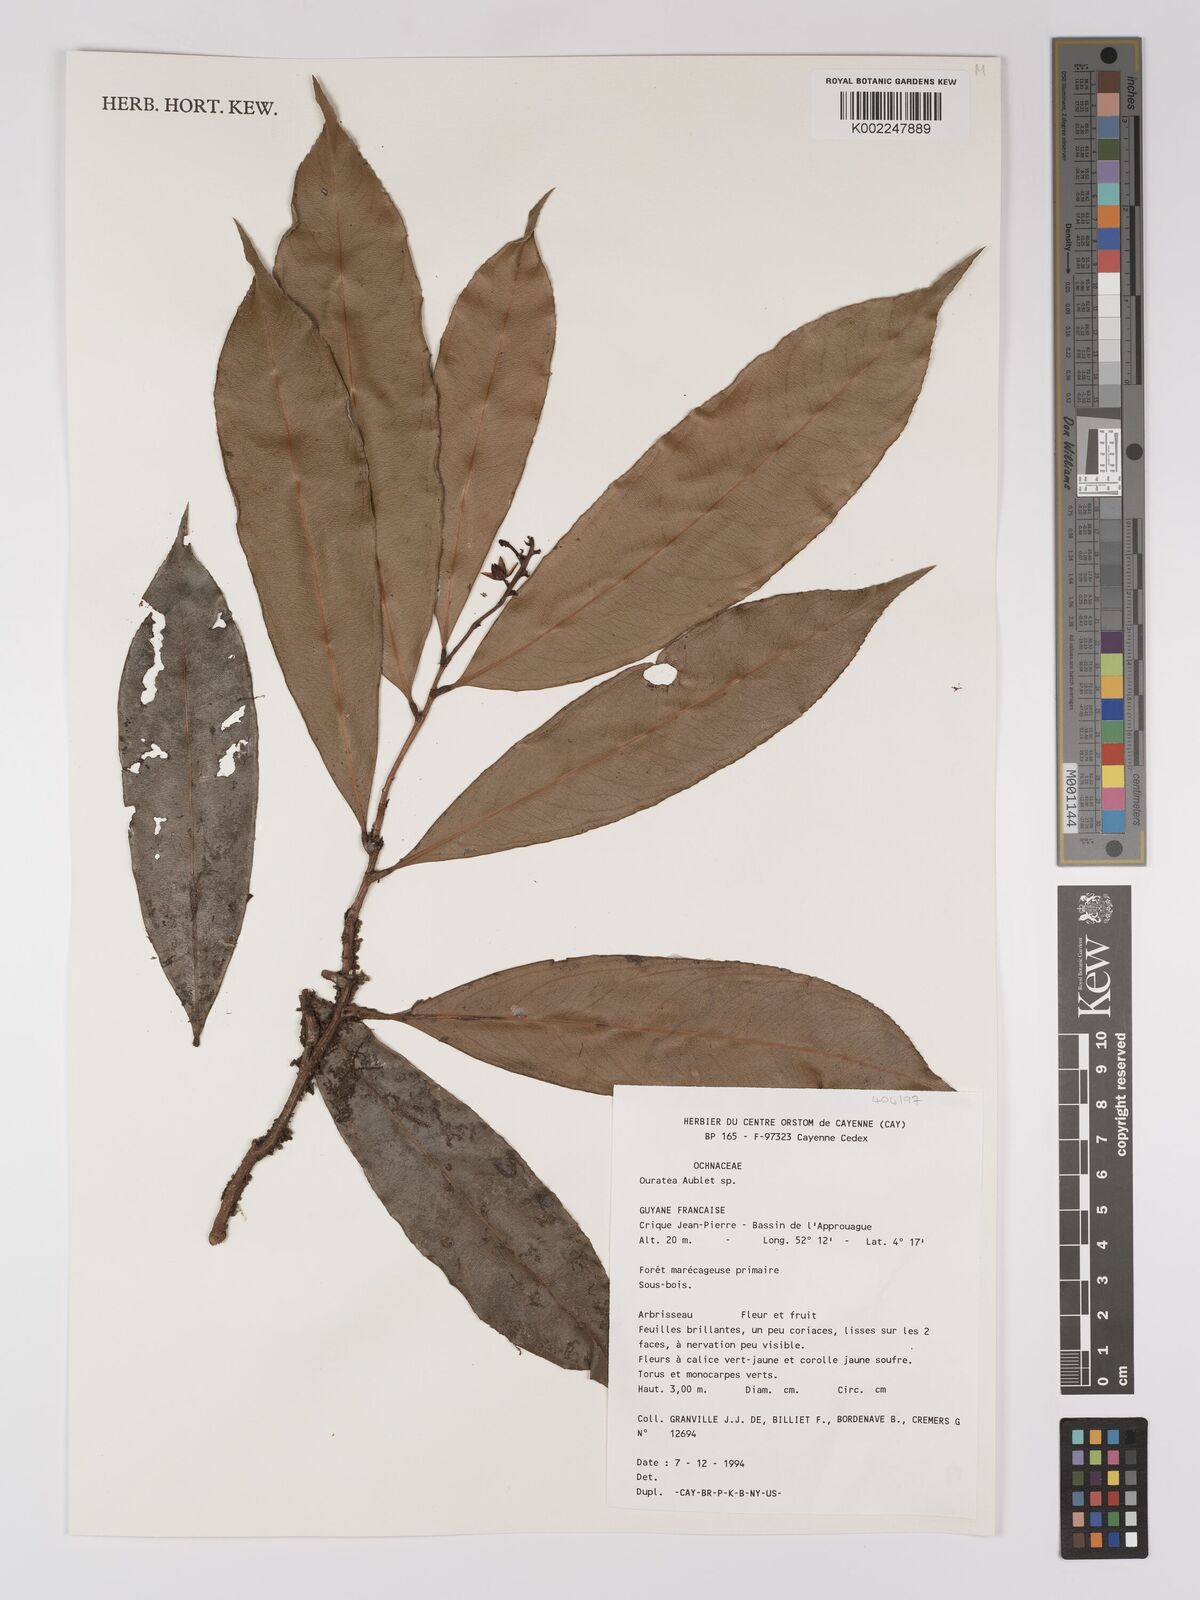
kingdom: Plantae
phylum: Tracheophyta
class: Magnoliopsida
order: Malpighiales
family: Ochnaceae
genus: Ouratea
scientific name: Ouratea
